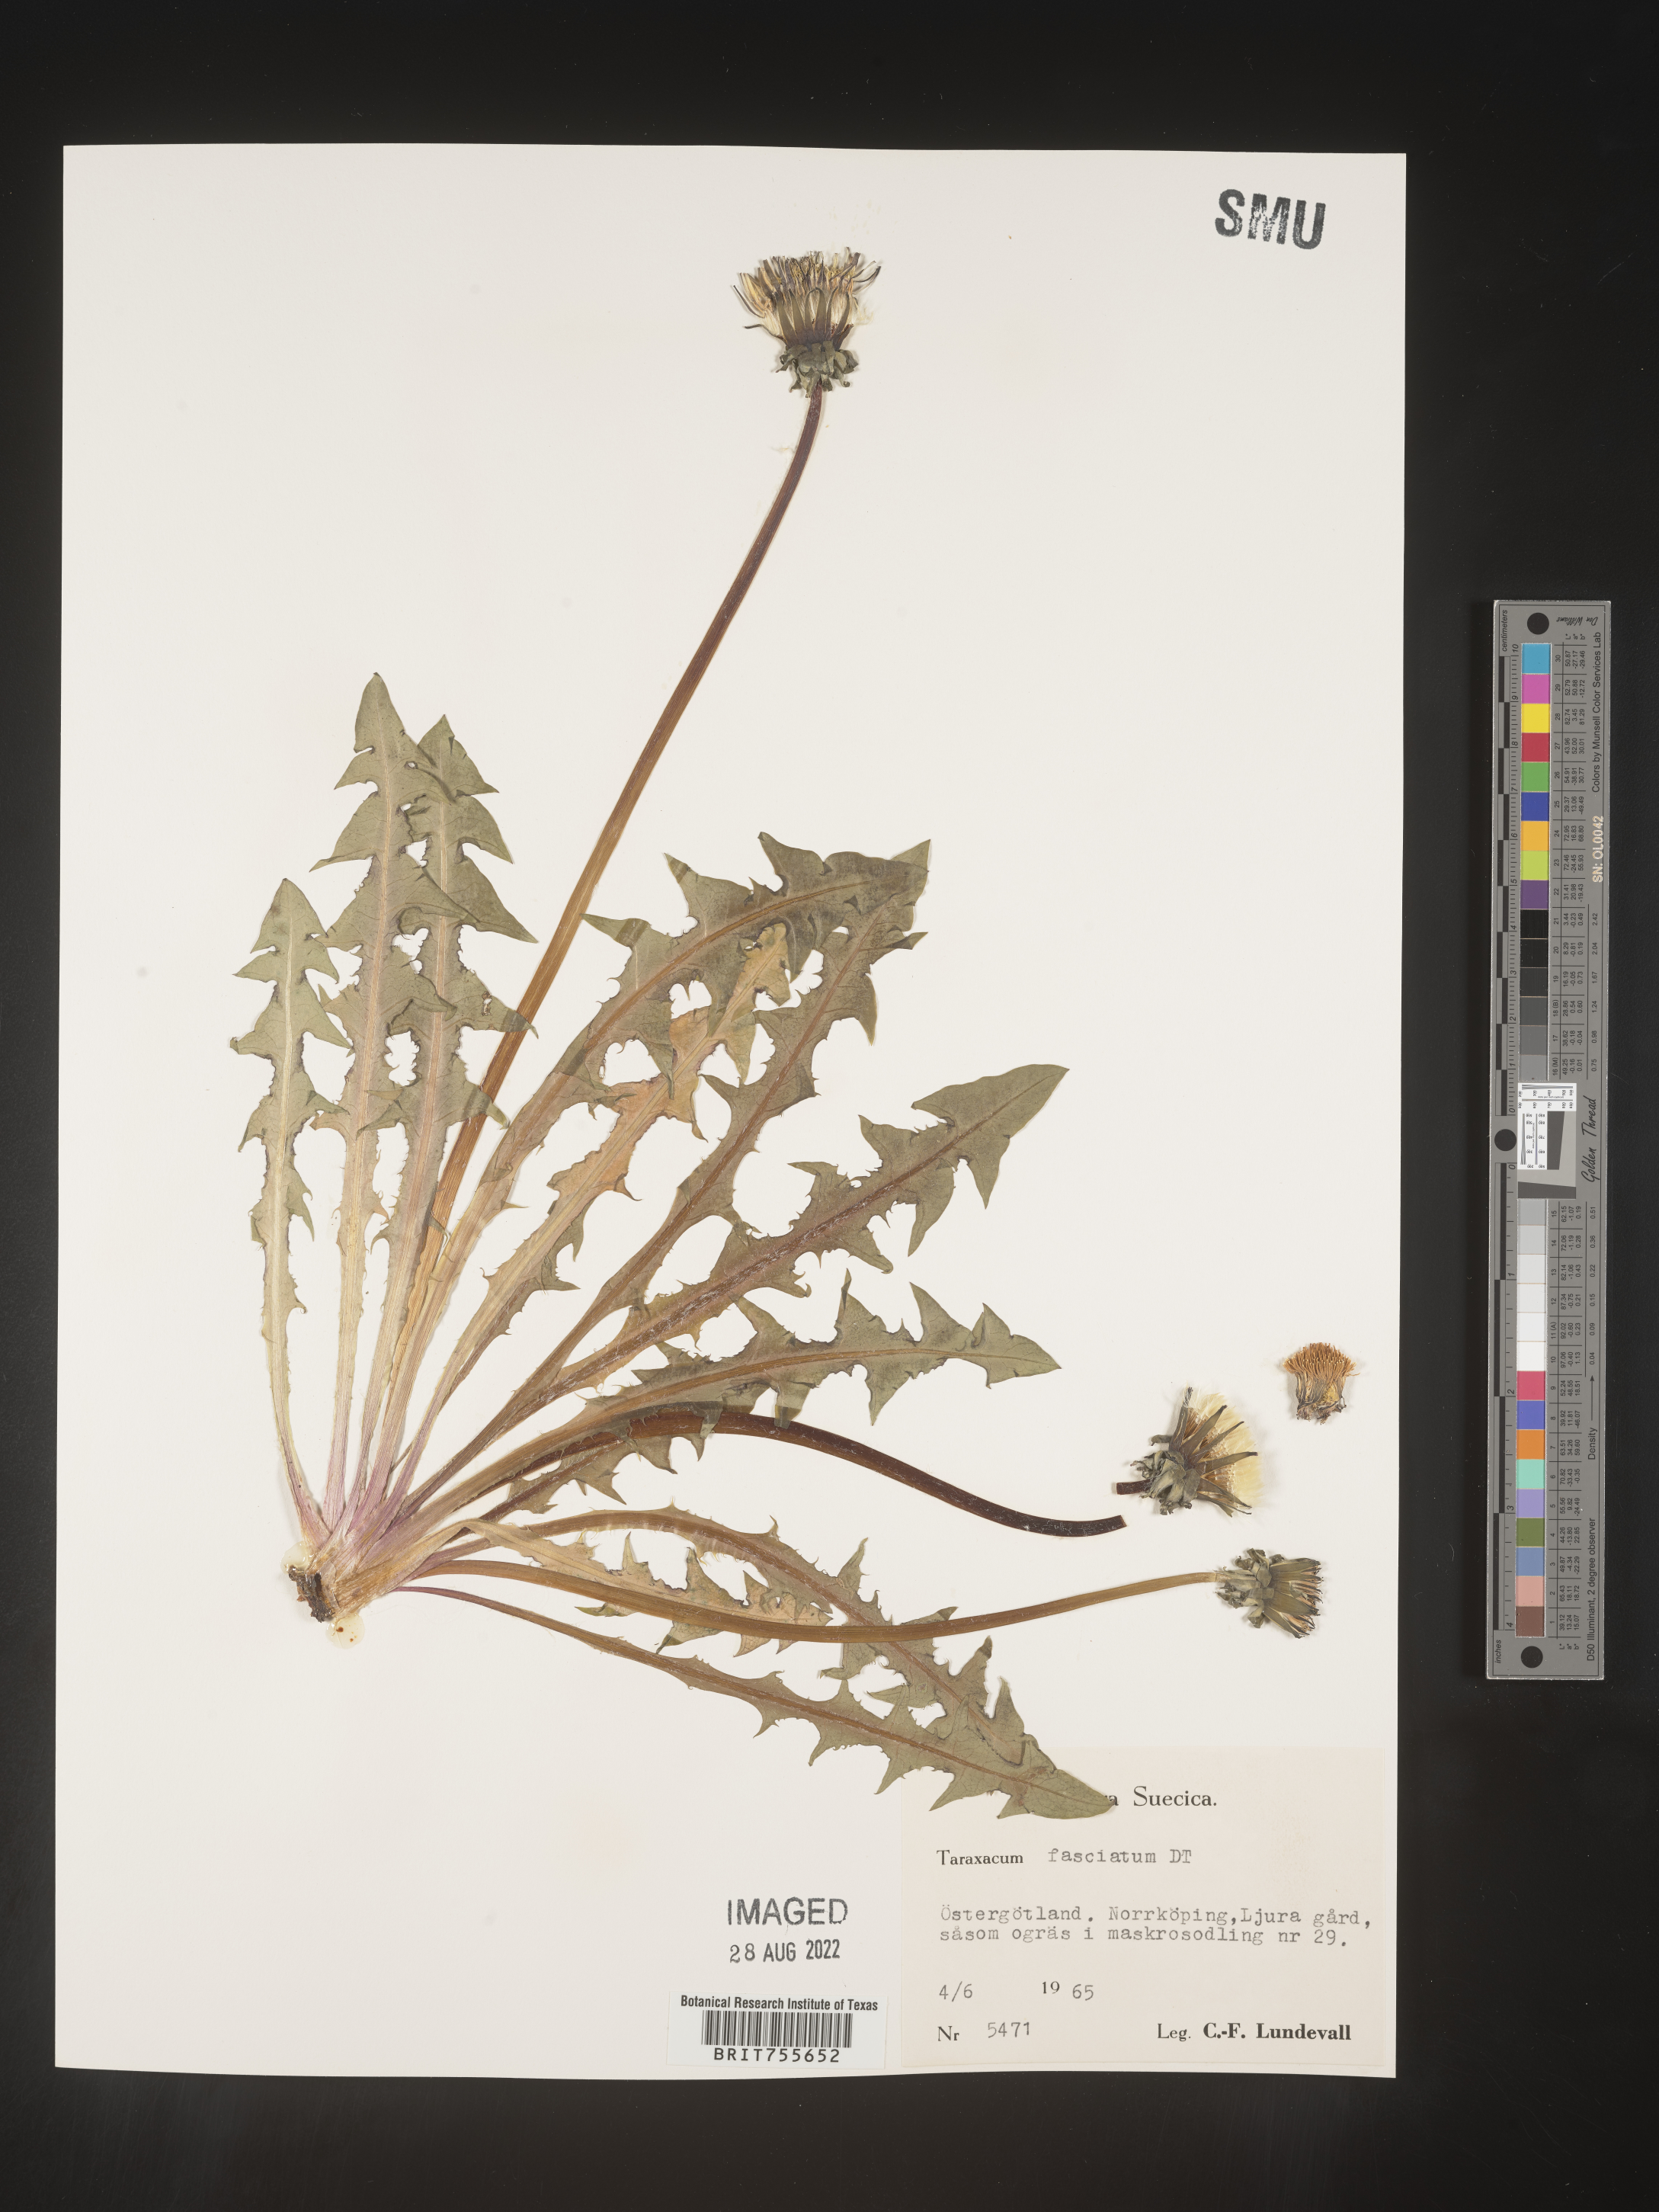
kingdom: Plantae
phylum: Tracheophyta
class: Magnoliopsida
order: Asterales
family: Asteraceae
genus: Taraxacum
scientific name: Taraxacum
